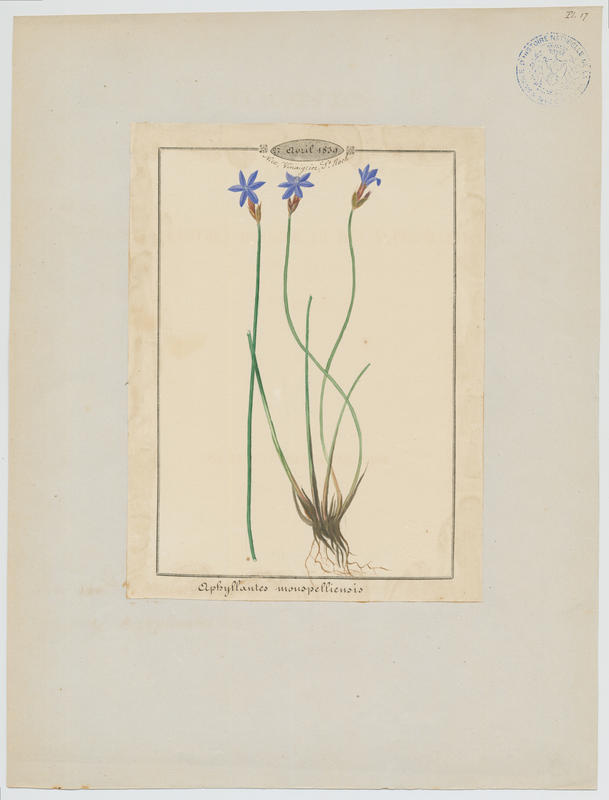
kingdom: Plantae
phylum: Tracheophyta
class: Liliopsida
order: Asparagales
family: Asparagaceae
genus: Aphyllanthes
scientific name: Aphyllanthes monspeliensis
